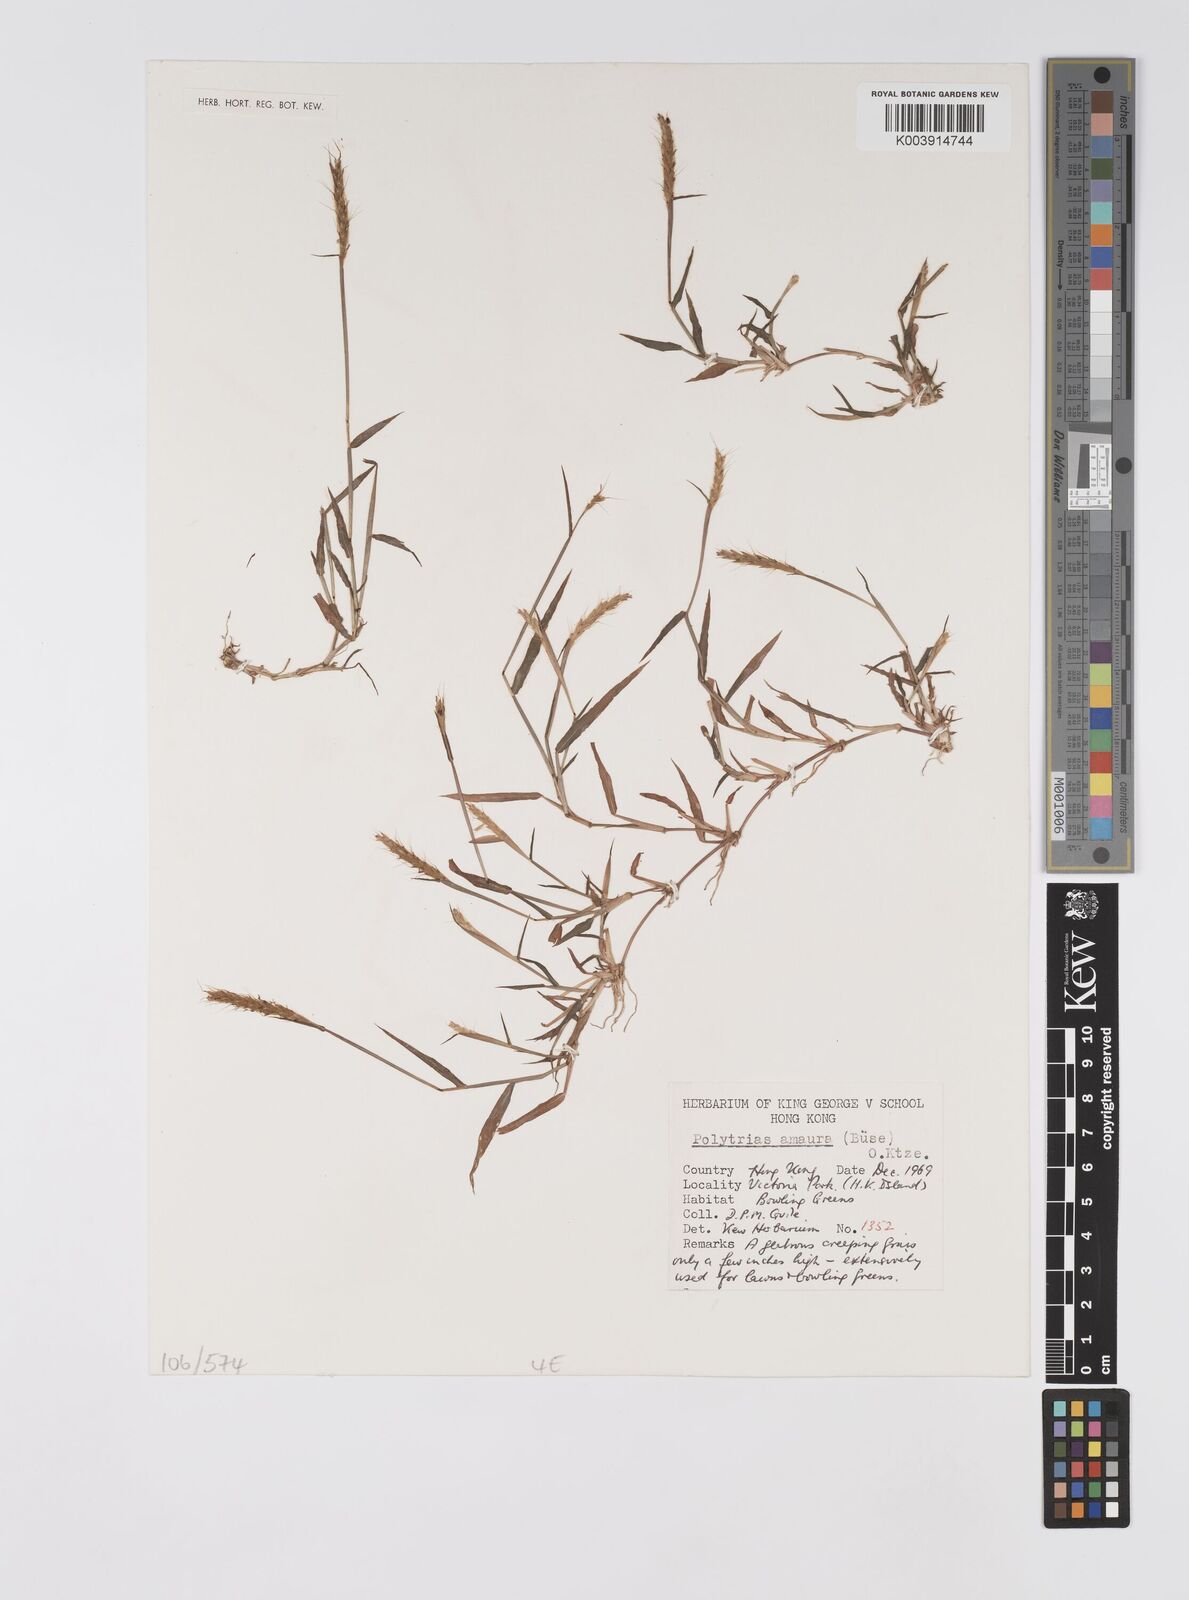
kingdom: Plantae
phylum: Tracheophyta
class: Liliopsida
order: Poales
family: Poaceae
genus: Polytrias
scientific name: Polytrias indica
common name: Indian murainagrass
